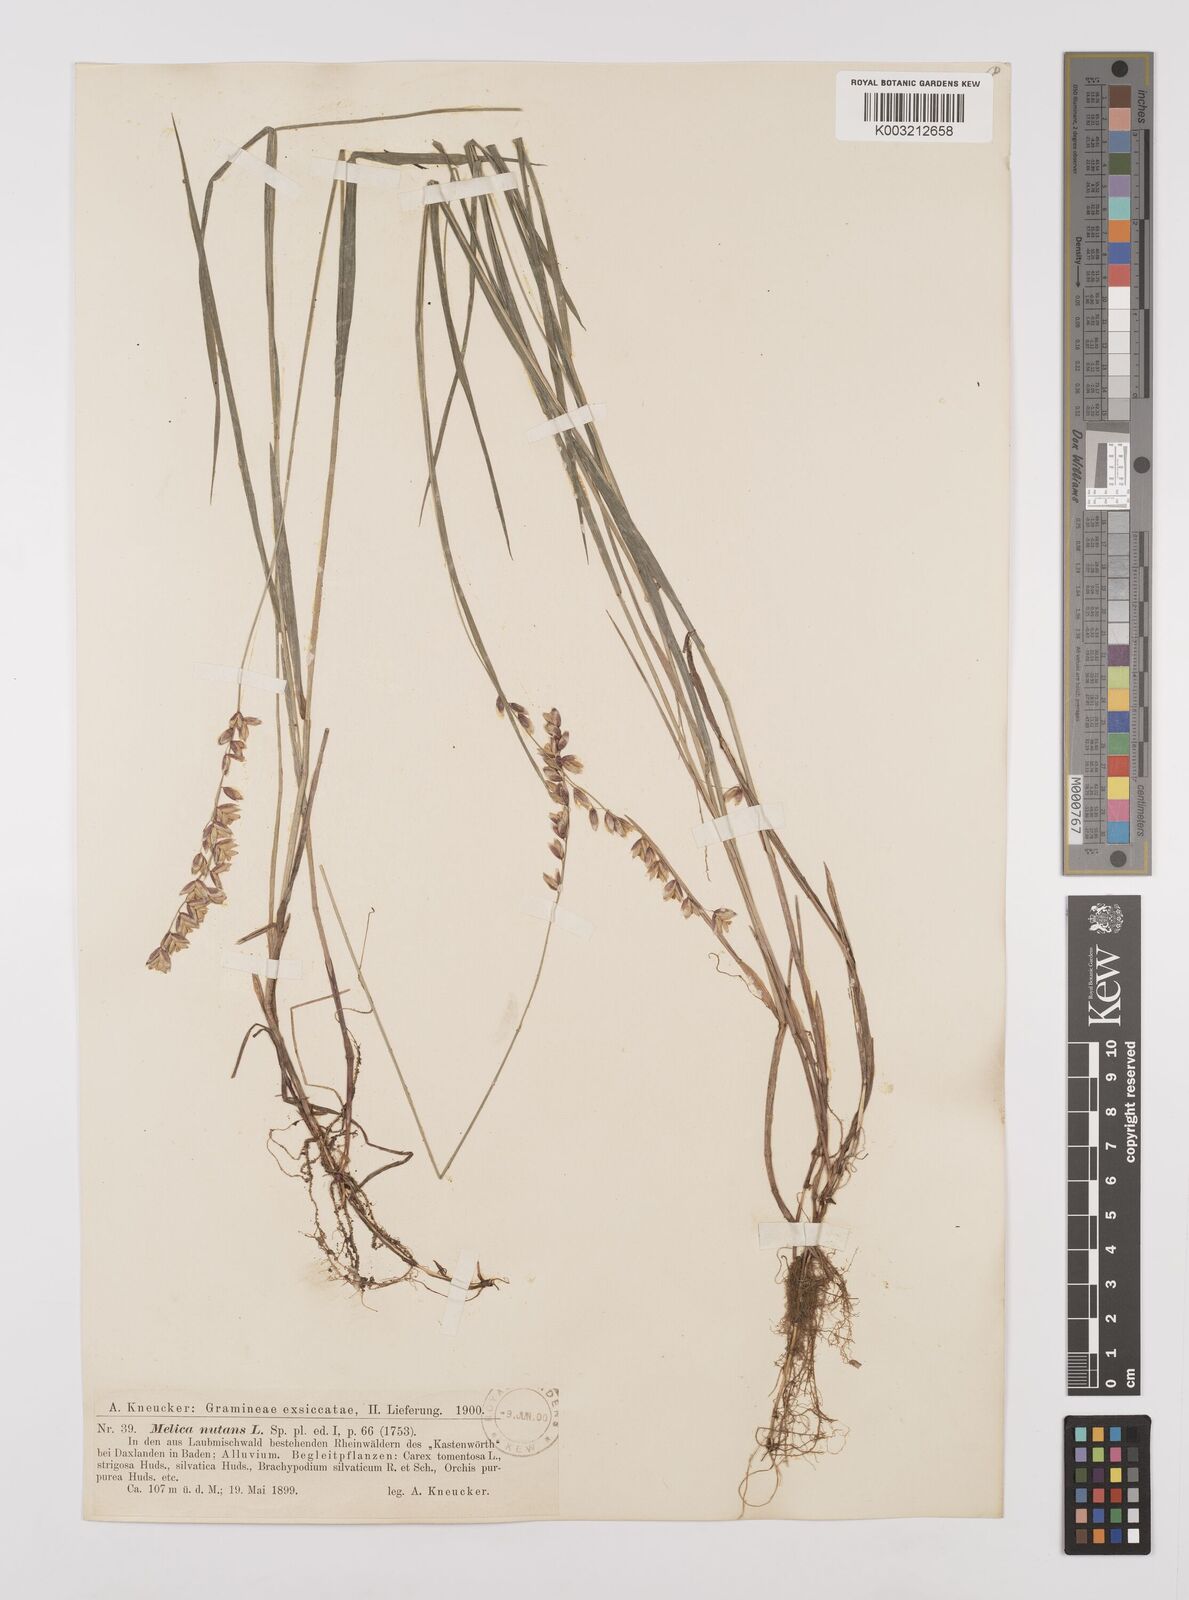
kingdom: Plantae
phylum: Tracheophyta
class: Liliopsida
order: Poales
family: Poaceae
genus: Melica
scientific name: Melica
